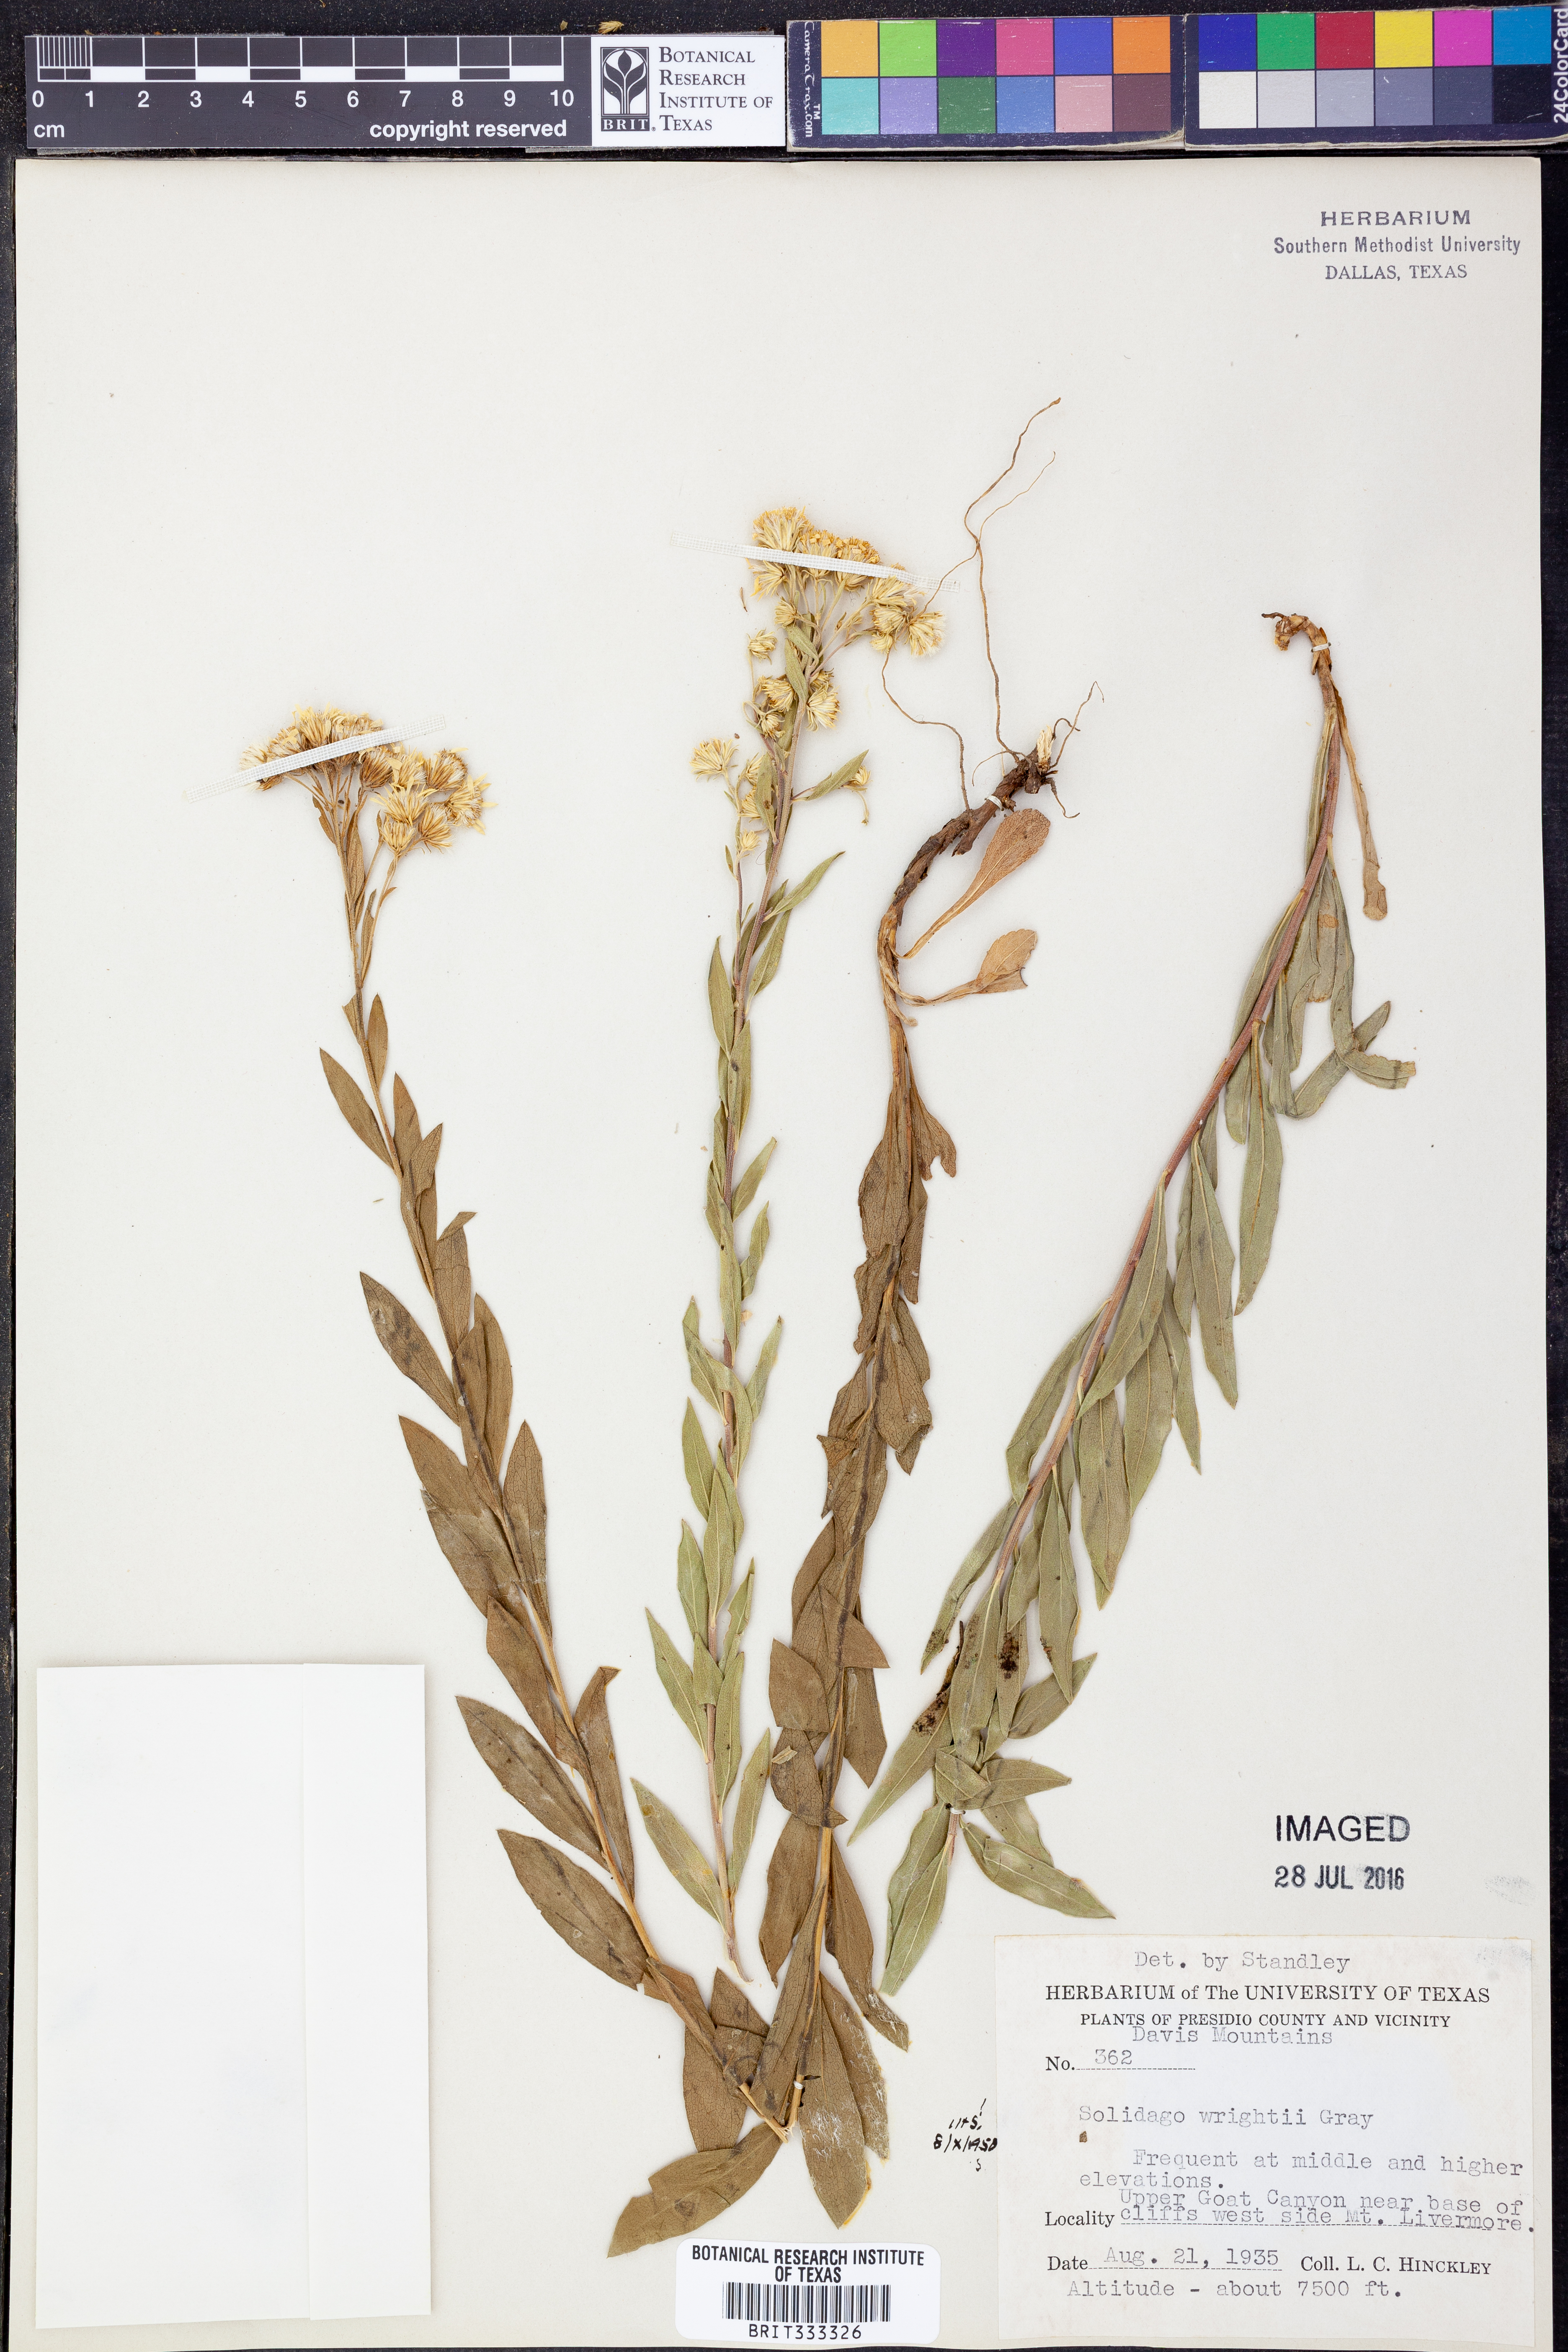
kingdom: Plantae
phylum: Tracheophyta
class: Magnoliopsida
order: Asterales
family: Asteraceae
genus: Solidago
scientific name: Solidago wrightii
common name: Wright's goldenrod
